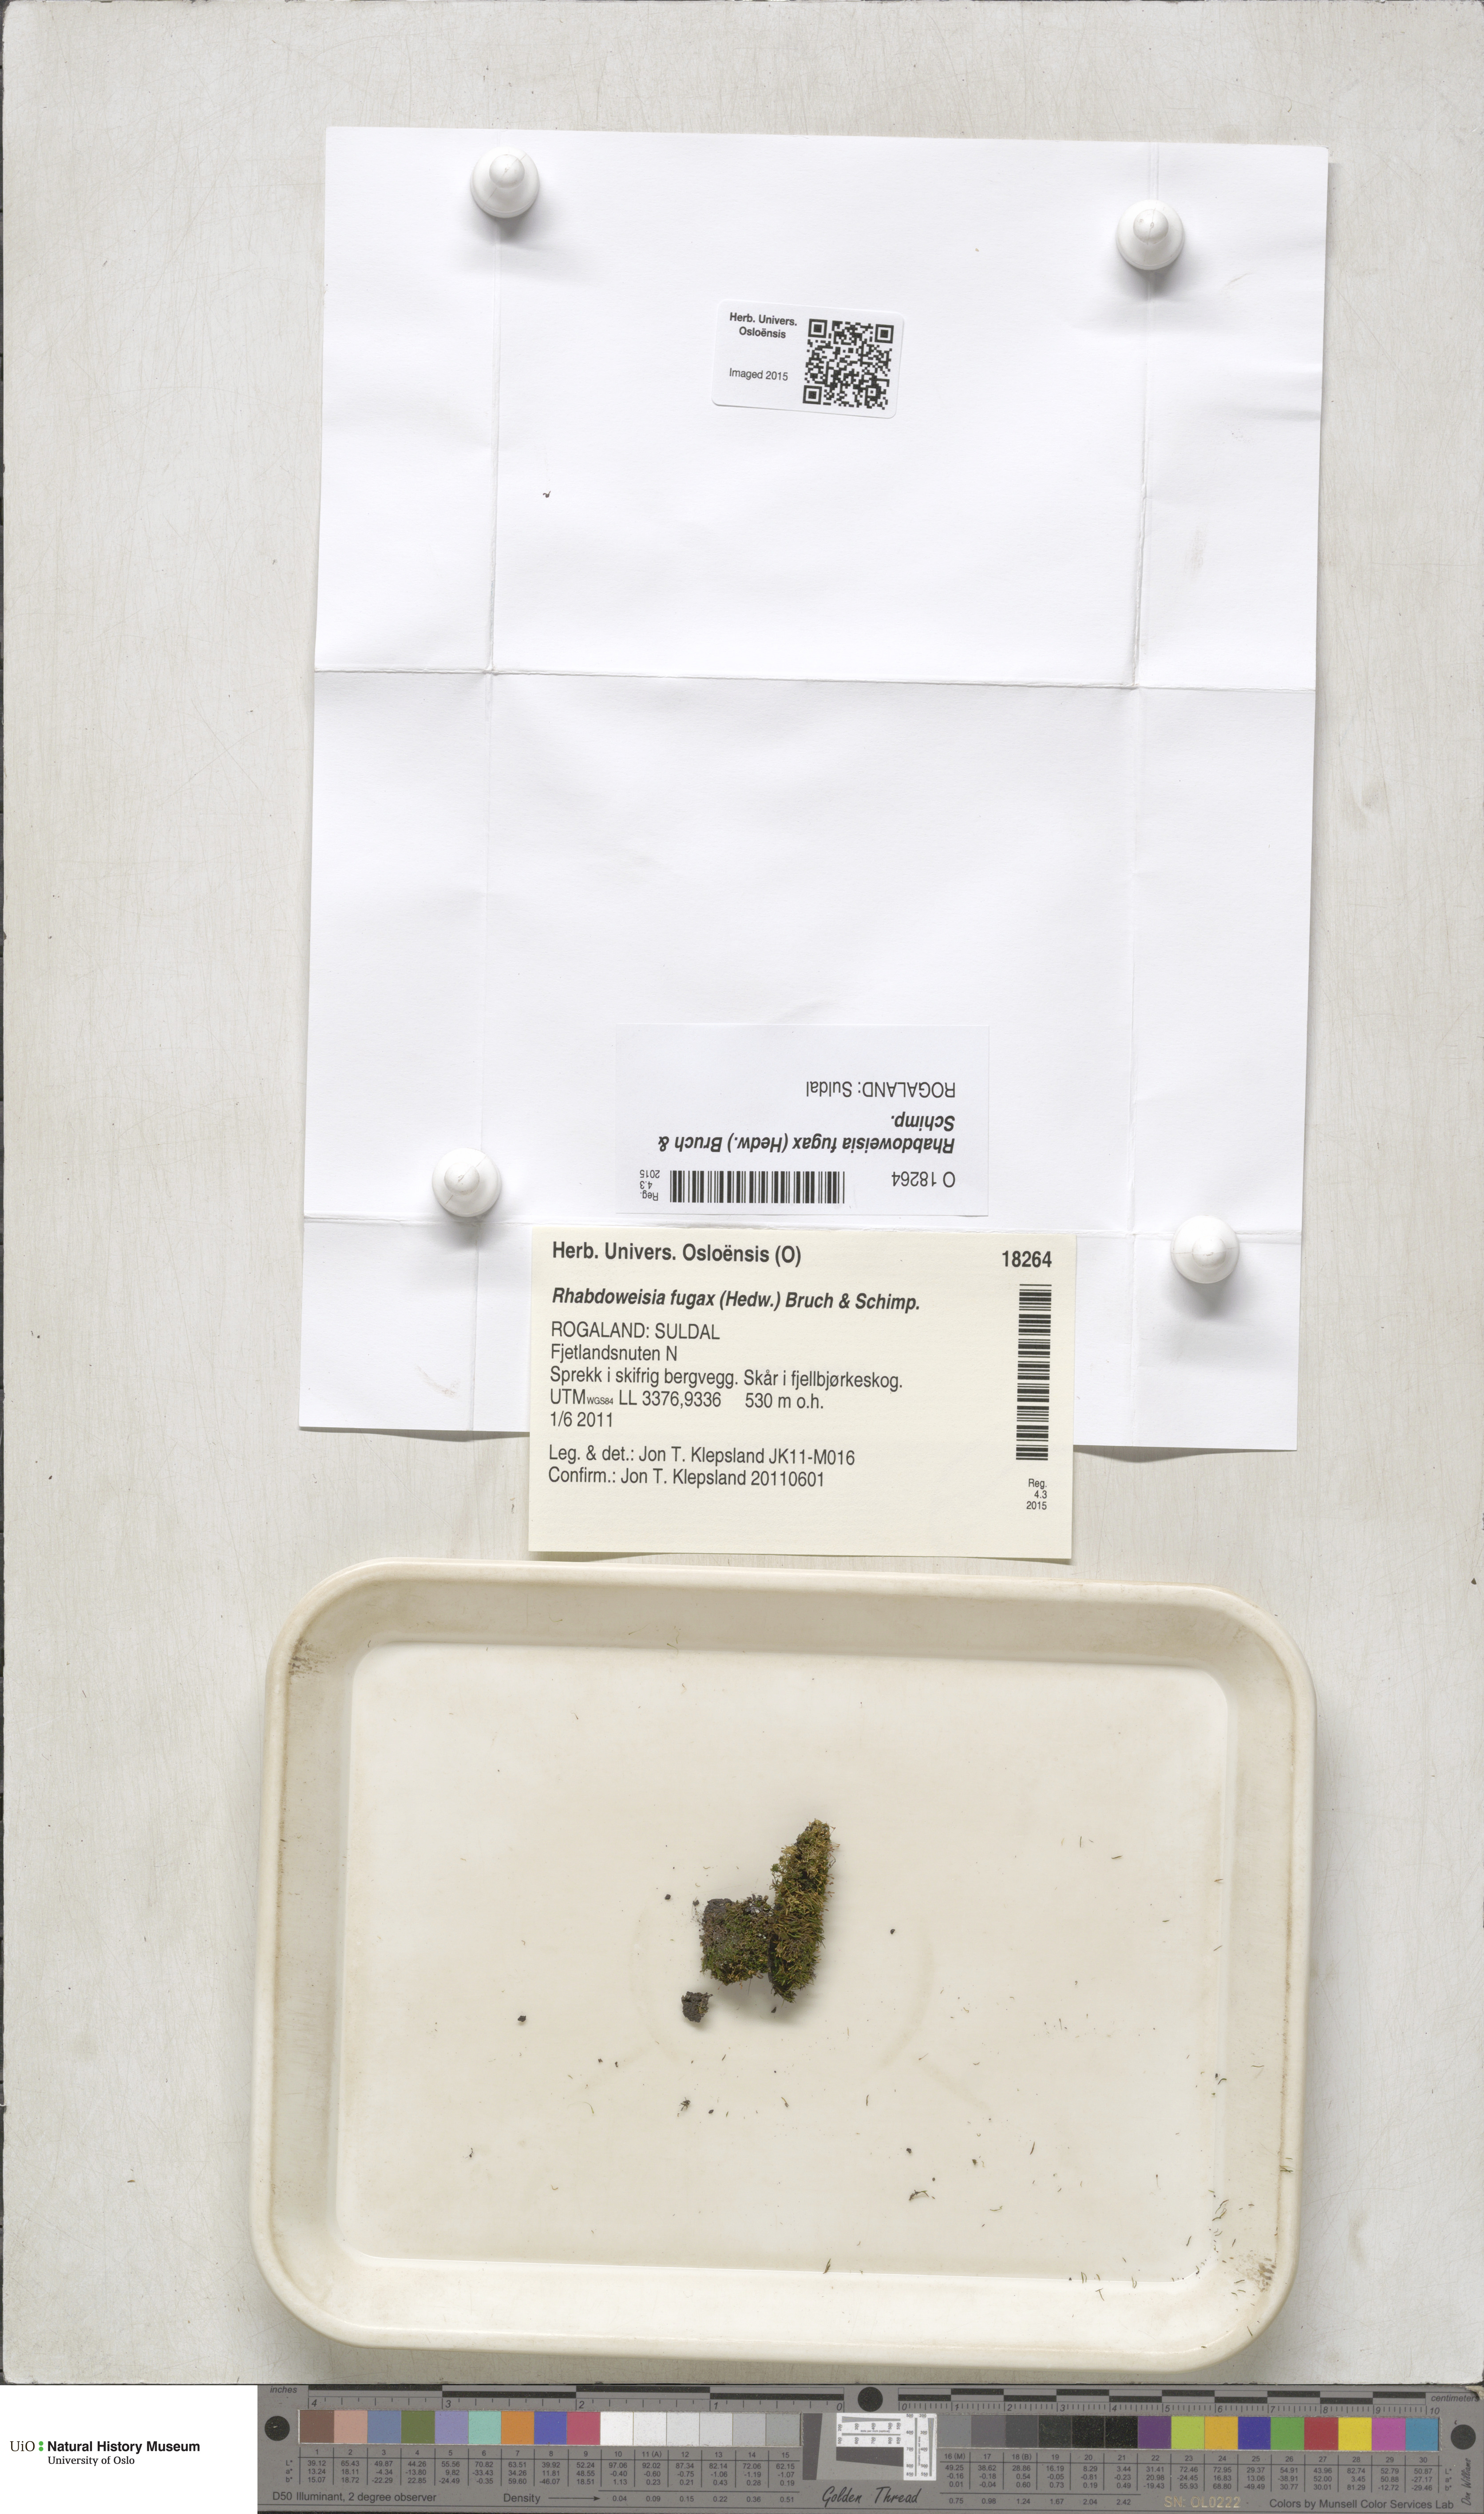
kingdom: Plantae
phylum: Bryophyta
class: Bryopsida
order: Dicranales
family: Rhabdoweisiaceae
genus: Rhabdoweisia
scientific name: Rhabdoweisia fugax
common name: Dwarf streak-moss
